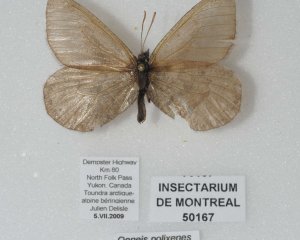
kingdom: Animalia
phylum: Arthropoda
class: Insecta
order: Lepidoptera
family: Nymphalidae
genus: Oeneis
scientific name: Oeneis bore
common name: Polixenes Arctic
